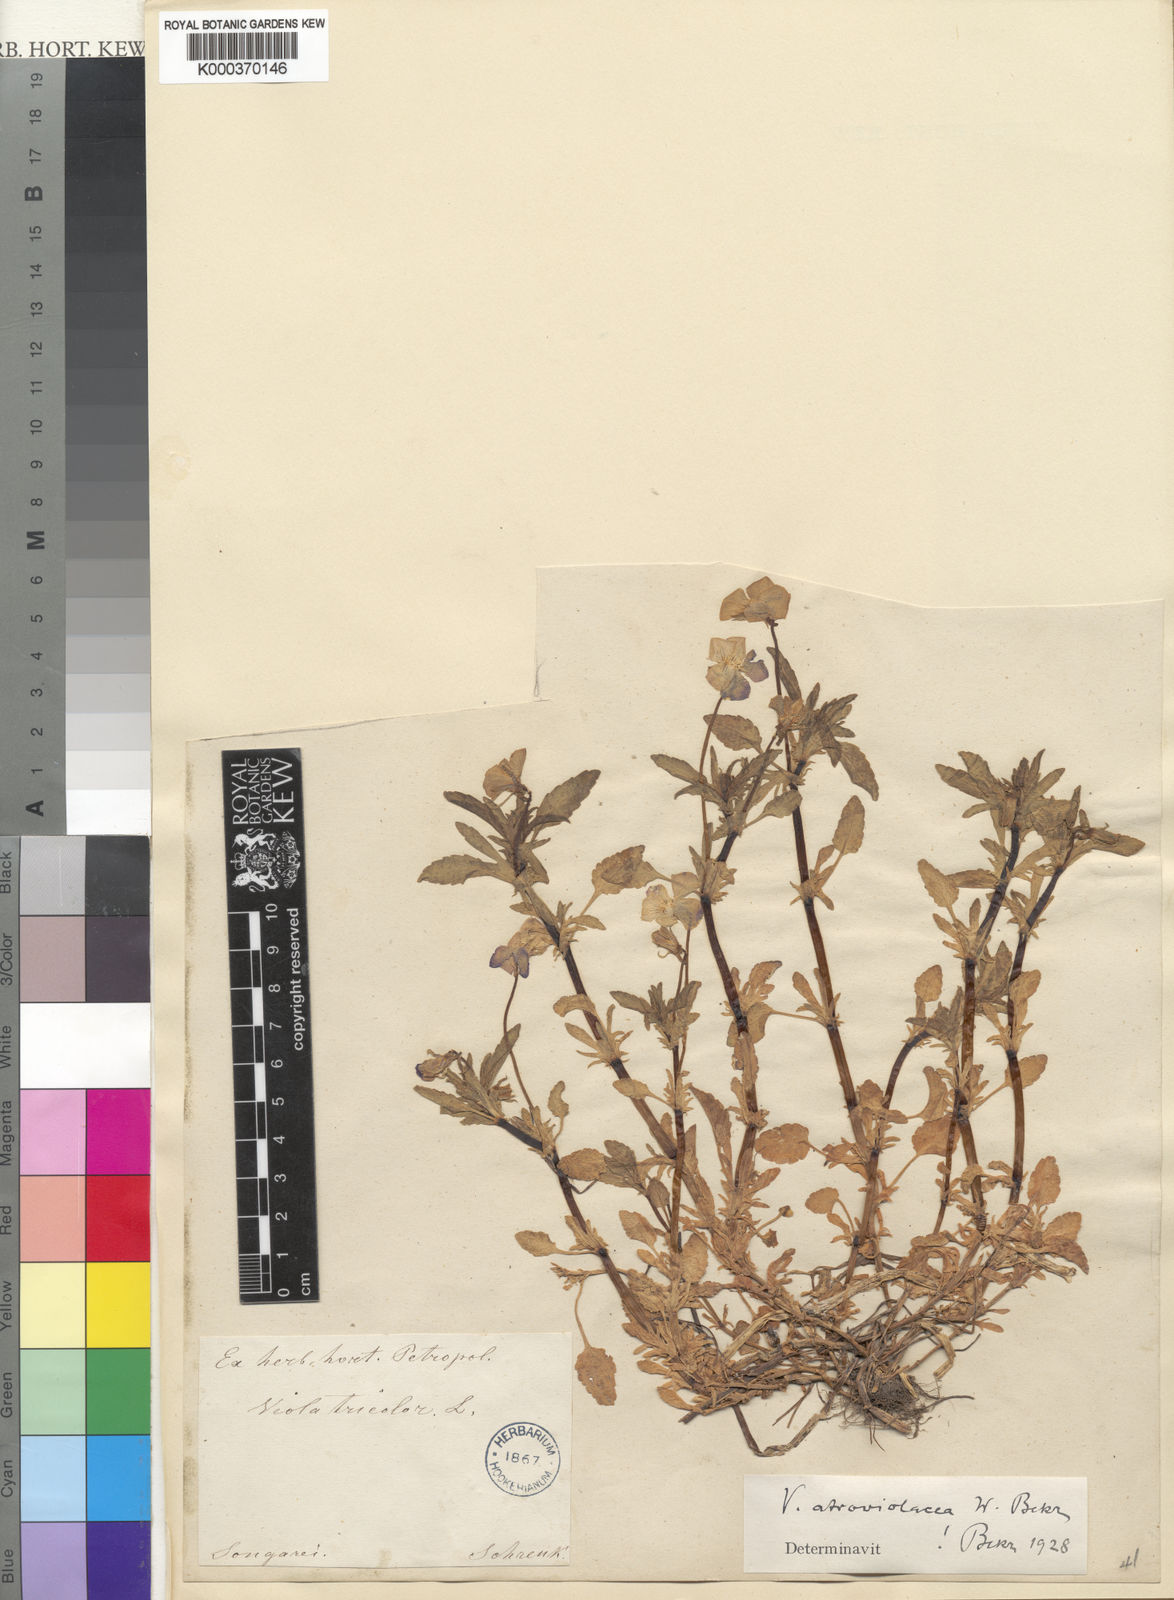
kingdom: Plantae
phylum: Tracheophyta
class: Magnoliopsida
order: Malpighiales
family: Violaceae
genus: Viola
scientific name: Viola tricolor
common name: Pansy
